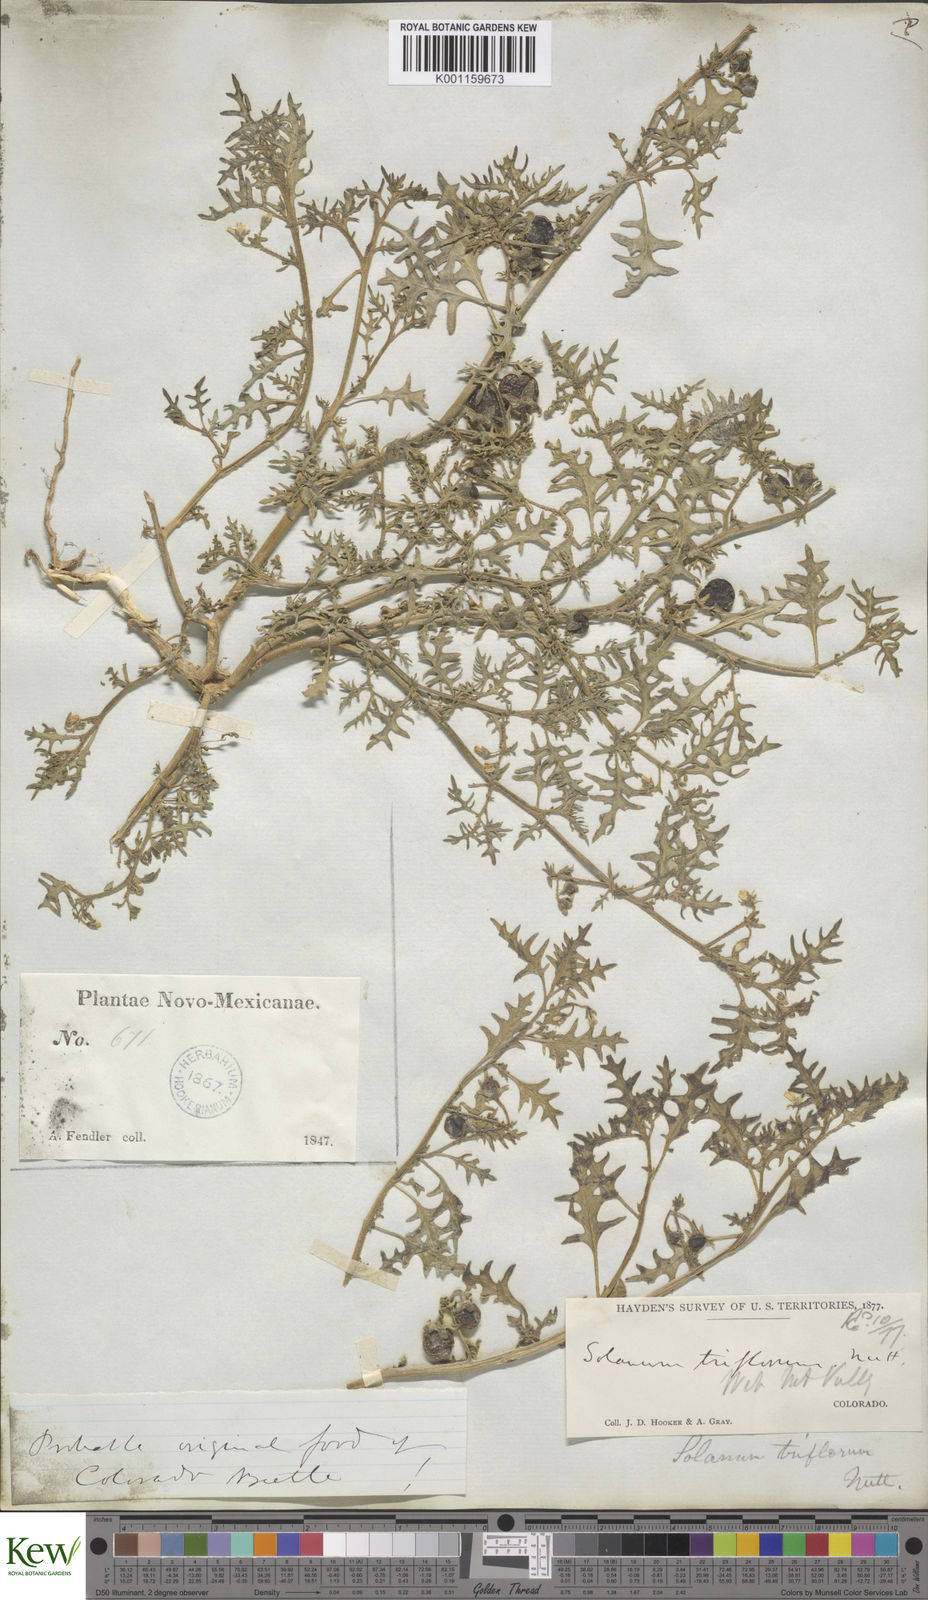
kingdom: Plantae
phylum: Tracheophyta
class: Magnoliopsida
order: Solanales
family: Solanaceae
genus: Solanum
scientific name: Solanum triflorum
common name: Small nightshade
